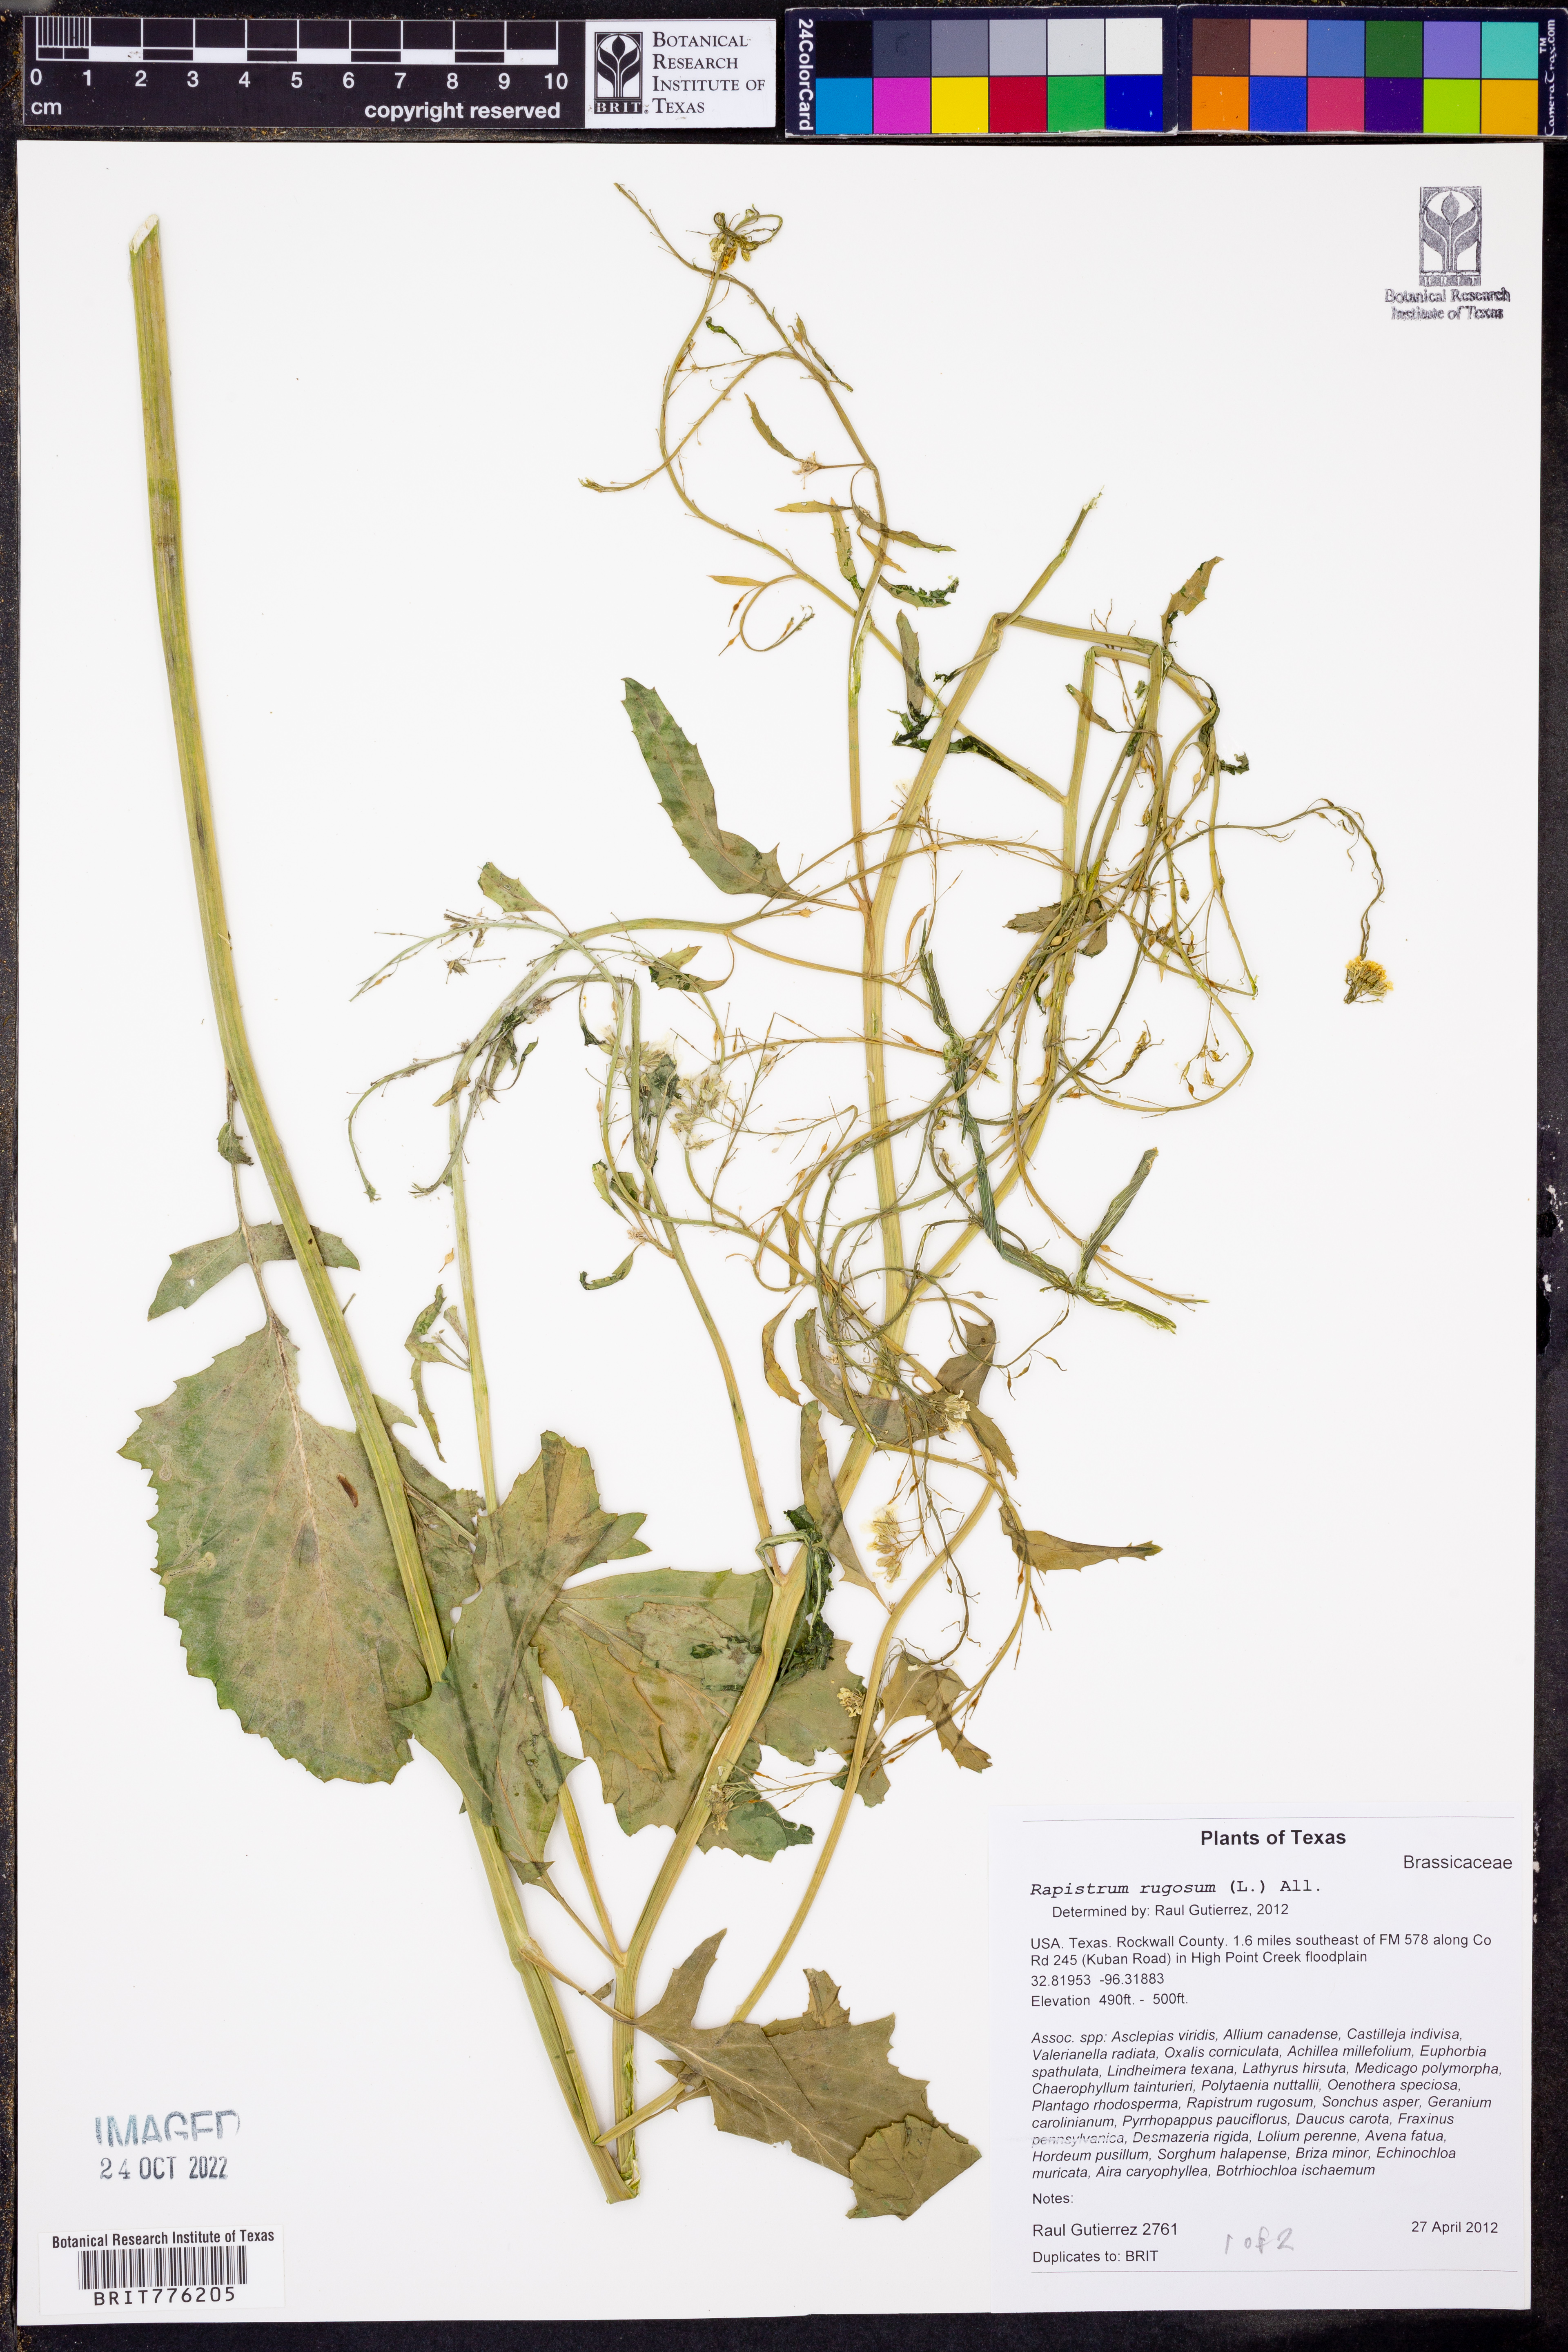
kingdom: Plantae
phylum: Tracheophyta
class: Magnoliopsida
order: Brassicales
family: Brassicaceae
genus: Rapistrum
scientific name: Rapistrum rugosum
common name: Annual bastardcabbage
